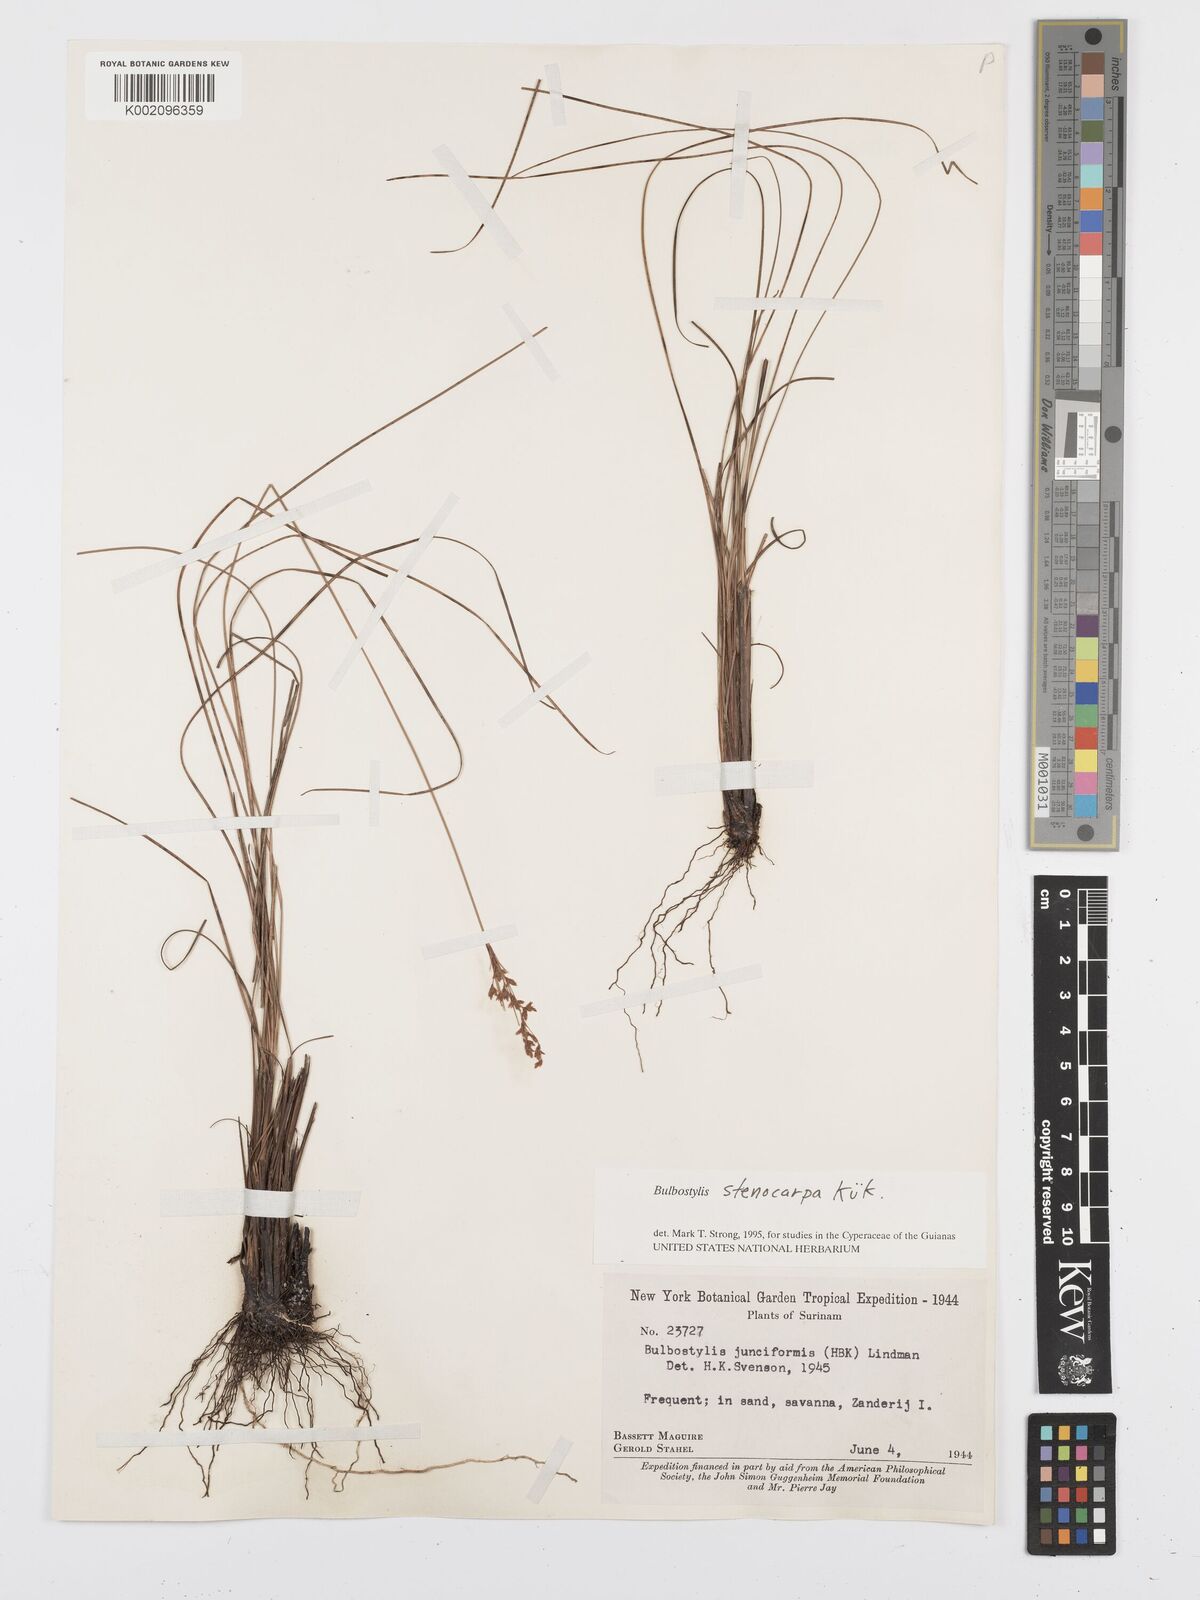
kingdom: Plantae
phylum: Tracheophyta
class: Liliopsida
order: Poales
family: Cyperaceae
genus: Bulbostylis
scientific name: Bulbostylis stenocarpa
